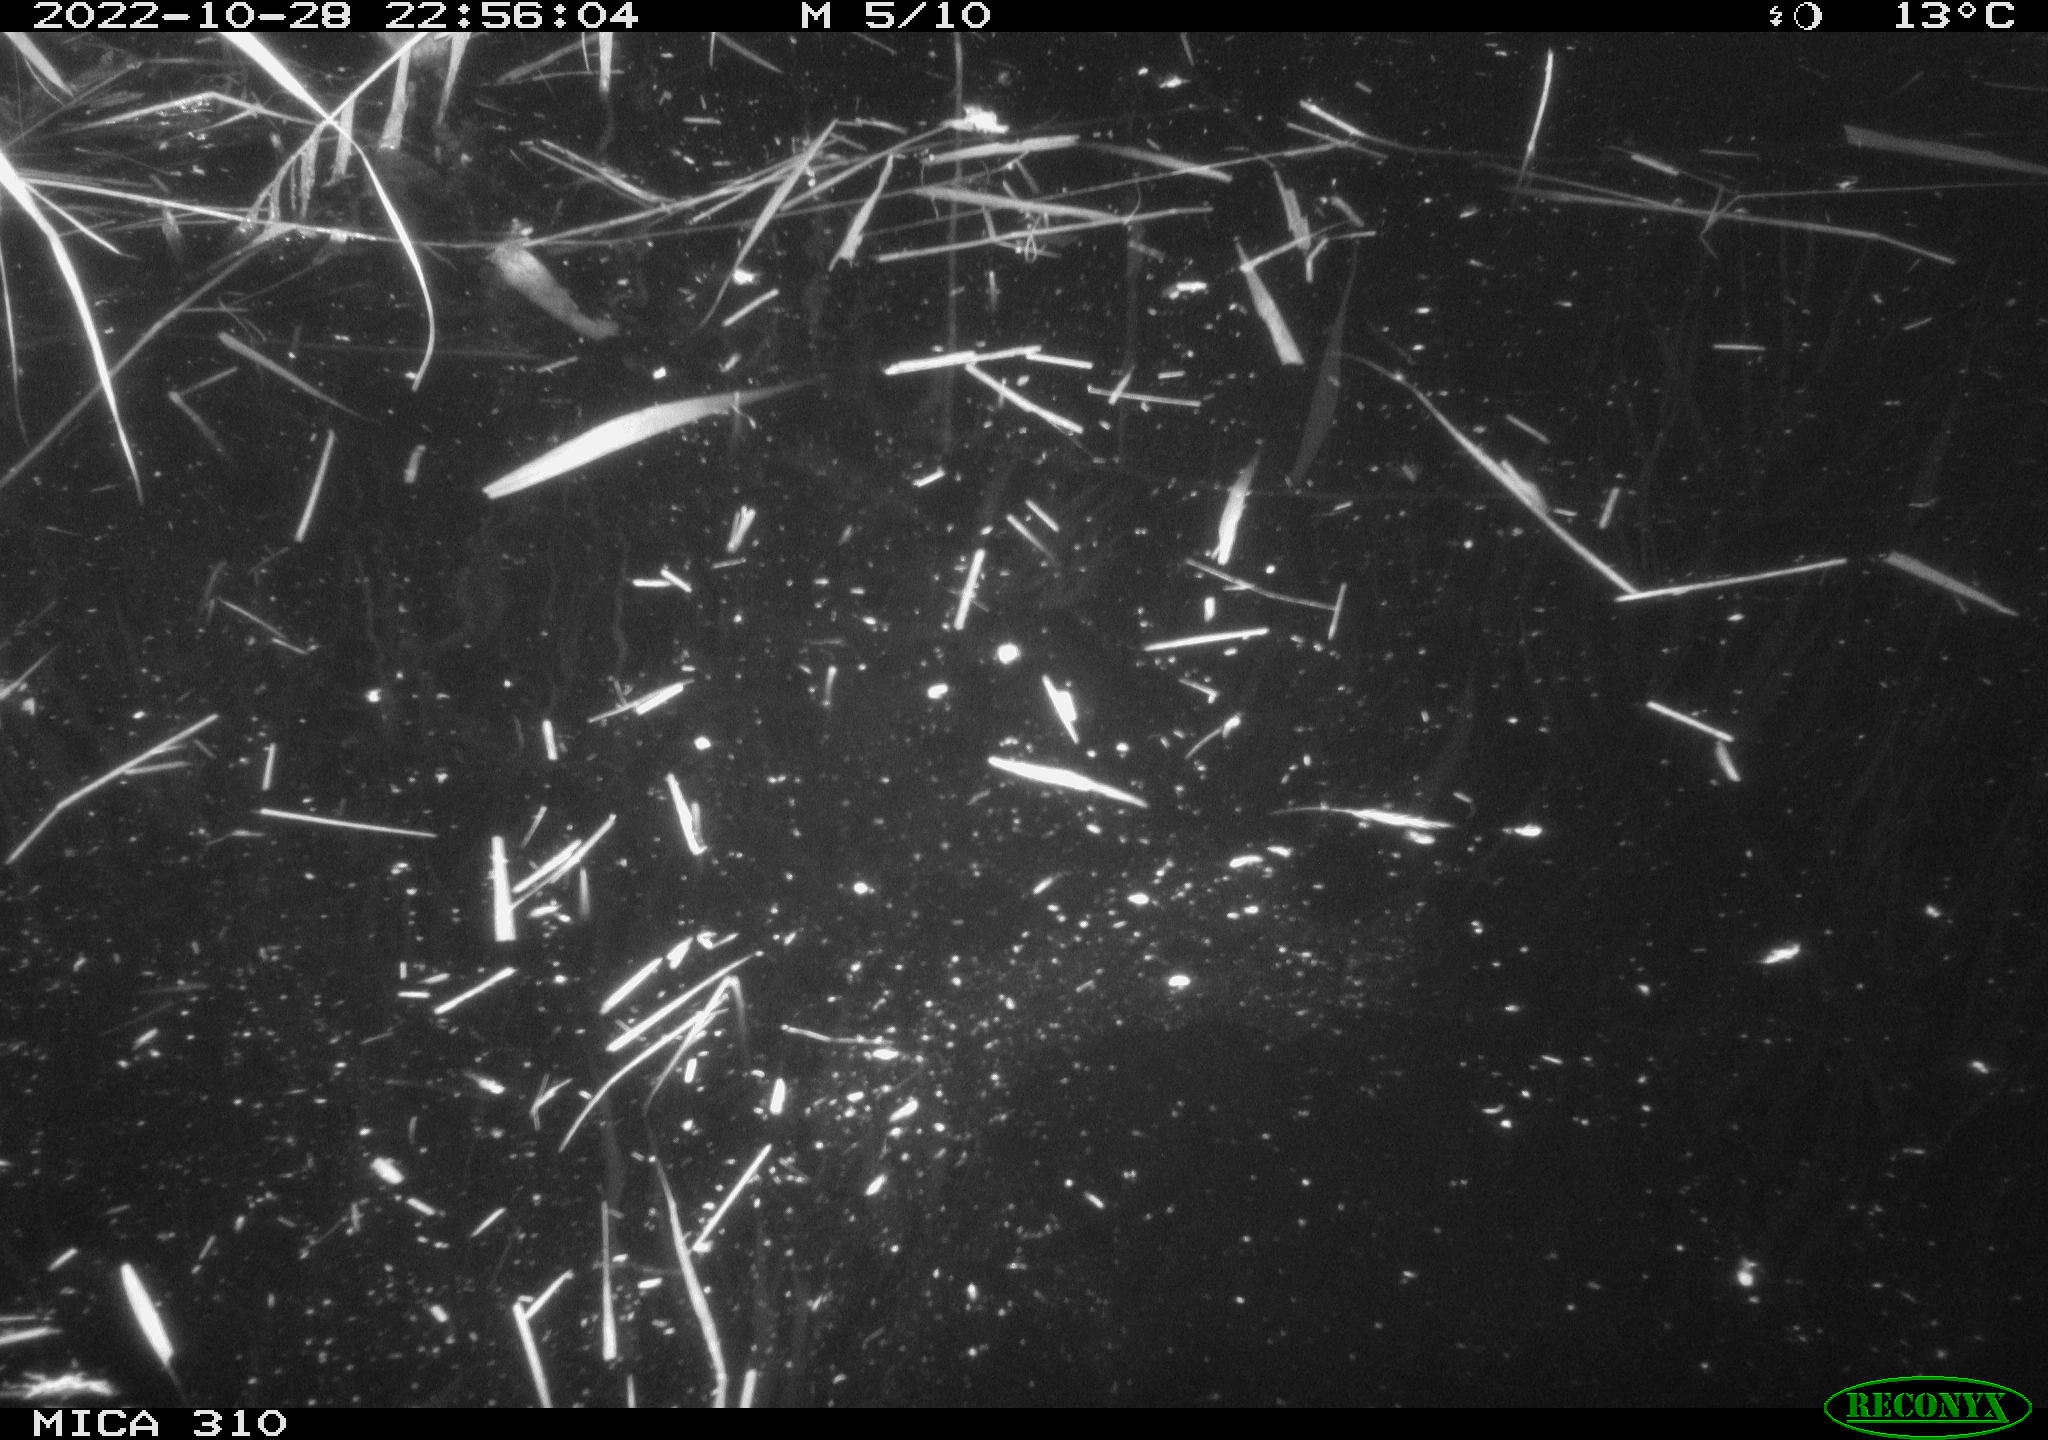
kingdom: Animalia
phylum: Chordata
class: Mammalia
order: Rodentia
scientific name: Rodentia
